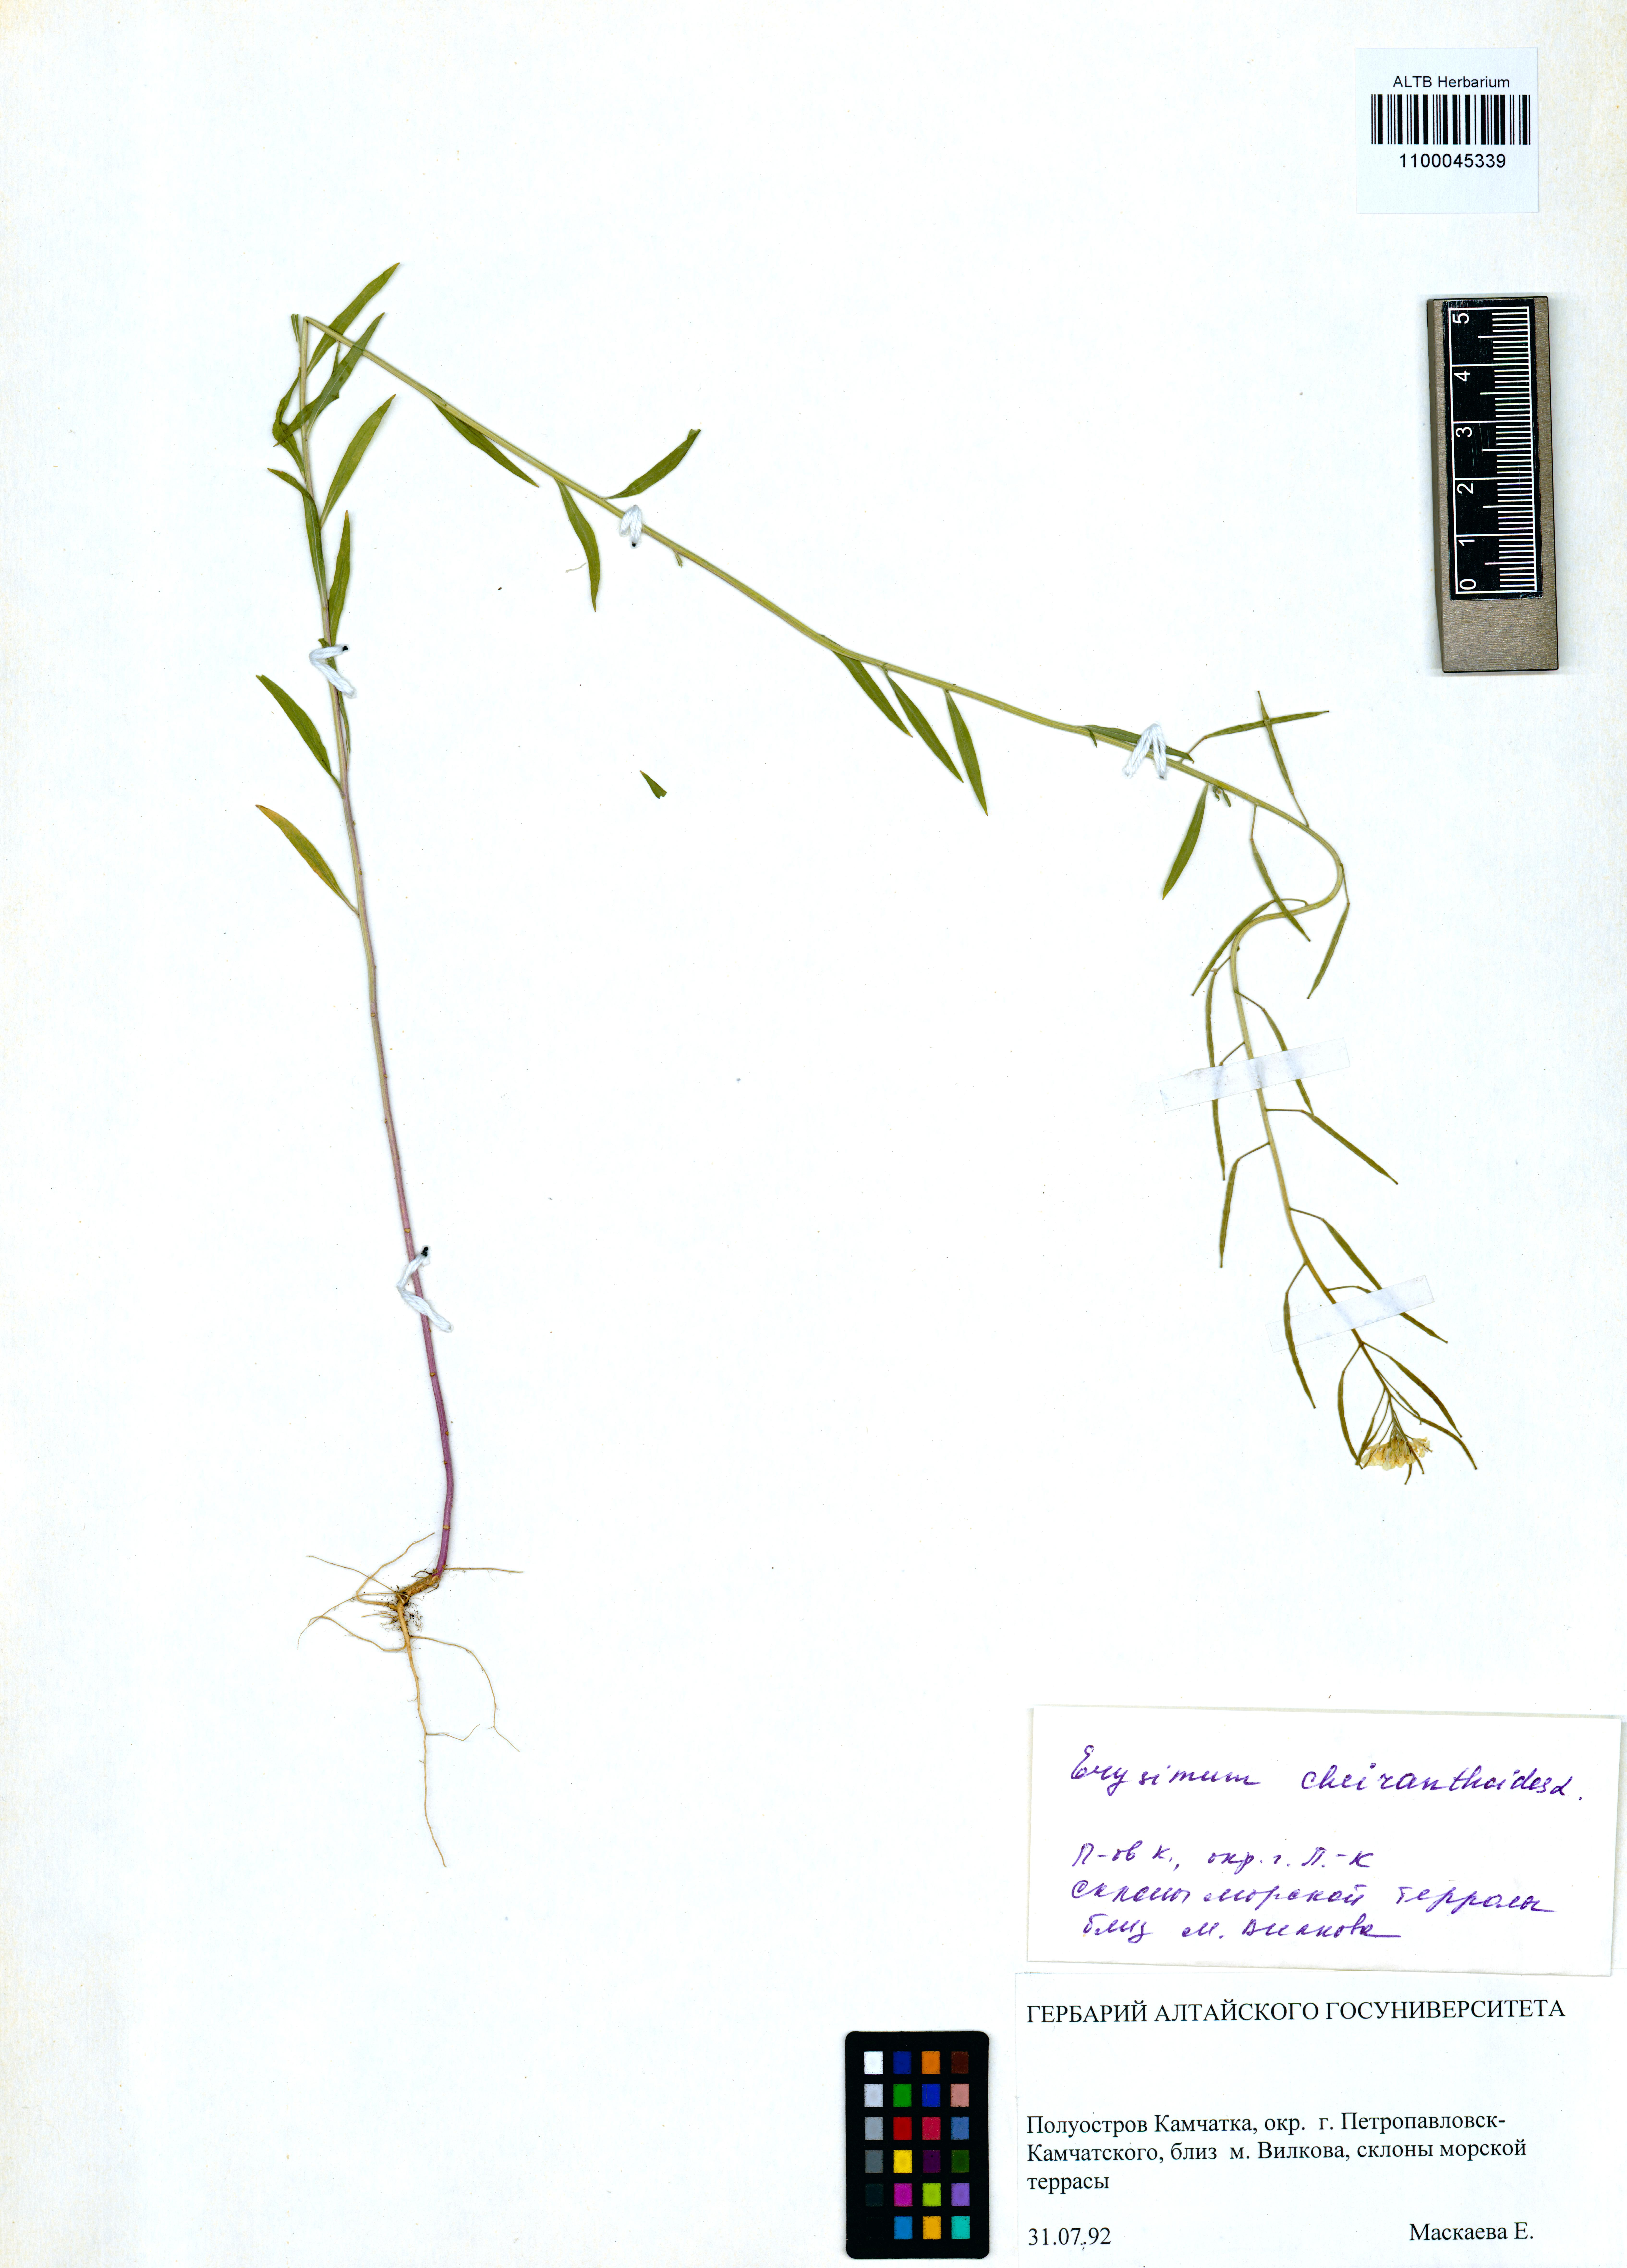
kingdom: Plantae
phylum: Tracheophyta
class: Magnoliopsida
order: Brassicales
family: Brassicaceae
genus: Erysimum
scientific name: Erysimum cheiranthoides
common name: Treacle mustard
